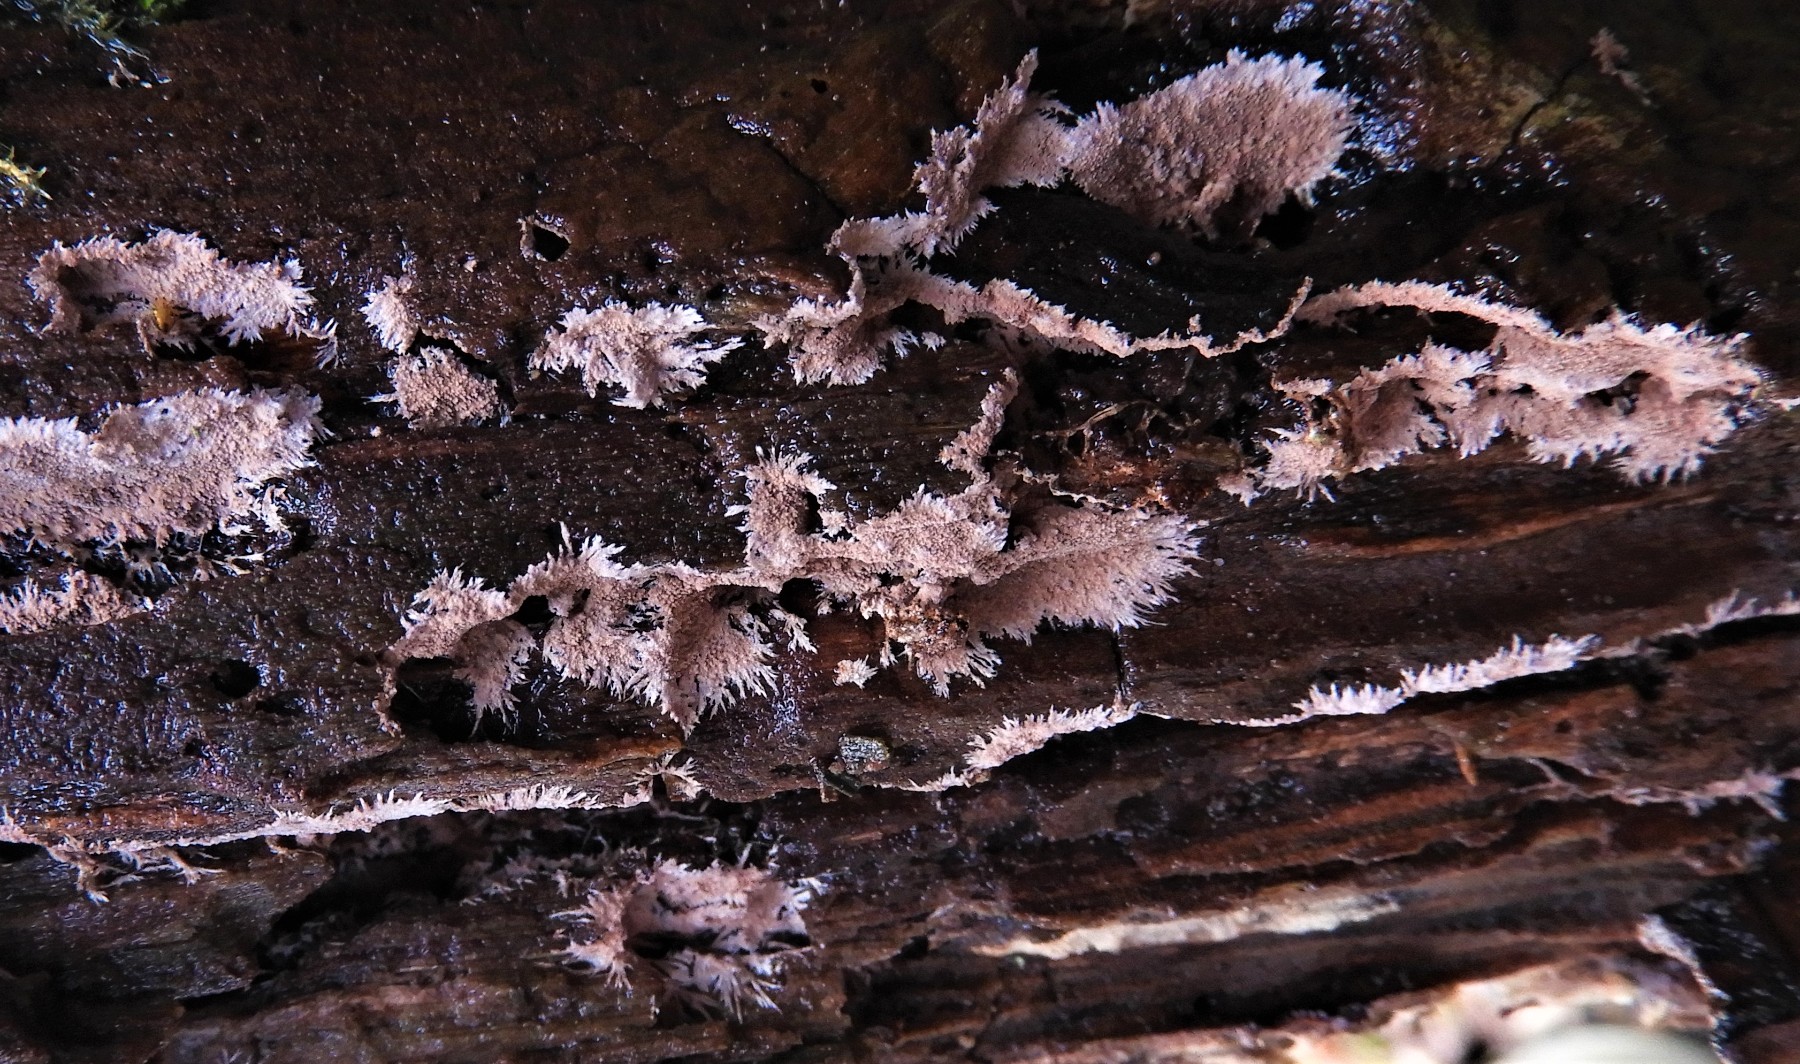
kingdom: Fungi
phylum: Basidiomycota
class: Agaricomycetes
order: Polyporales
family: Steccherinaceae
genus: Steccherinum
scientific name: Steccherinum fimbriatum
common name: trådet skønpig
